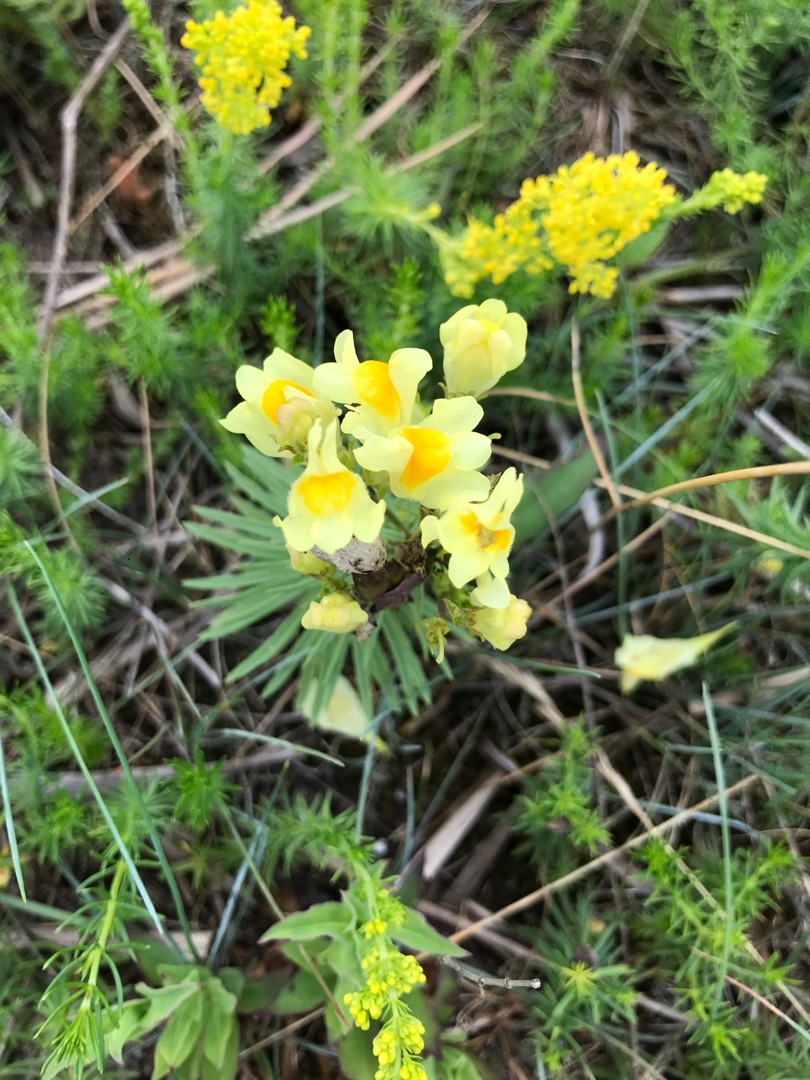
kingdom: Plantae
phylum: Tracheophyta
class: Magnoliopsida
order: Lamiales
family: Plantaginaceae
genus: Linaria
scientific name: Linaria vulgaris
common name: Almindelig torskemund
